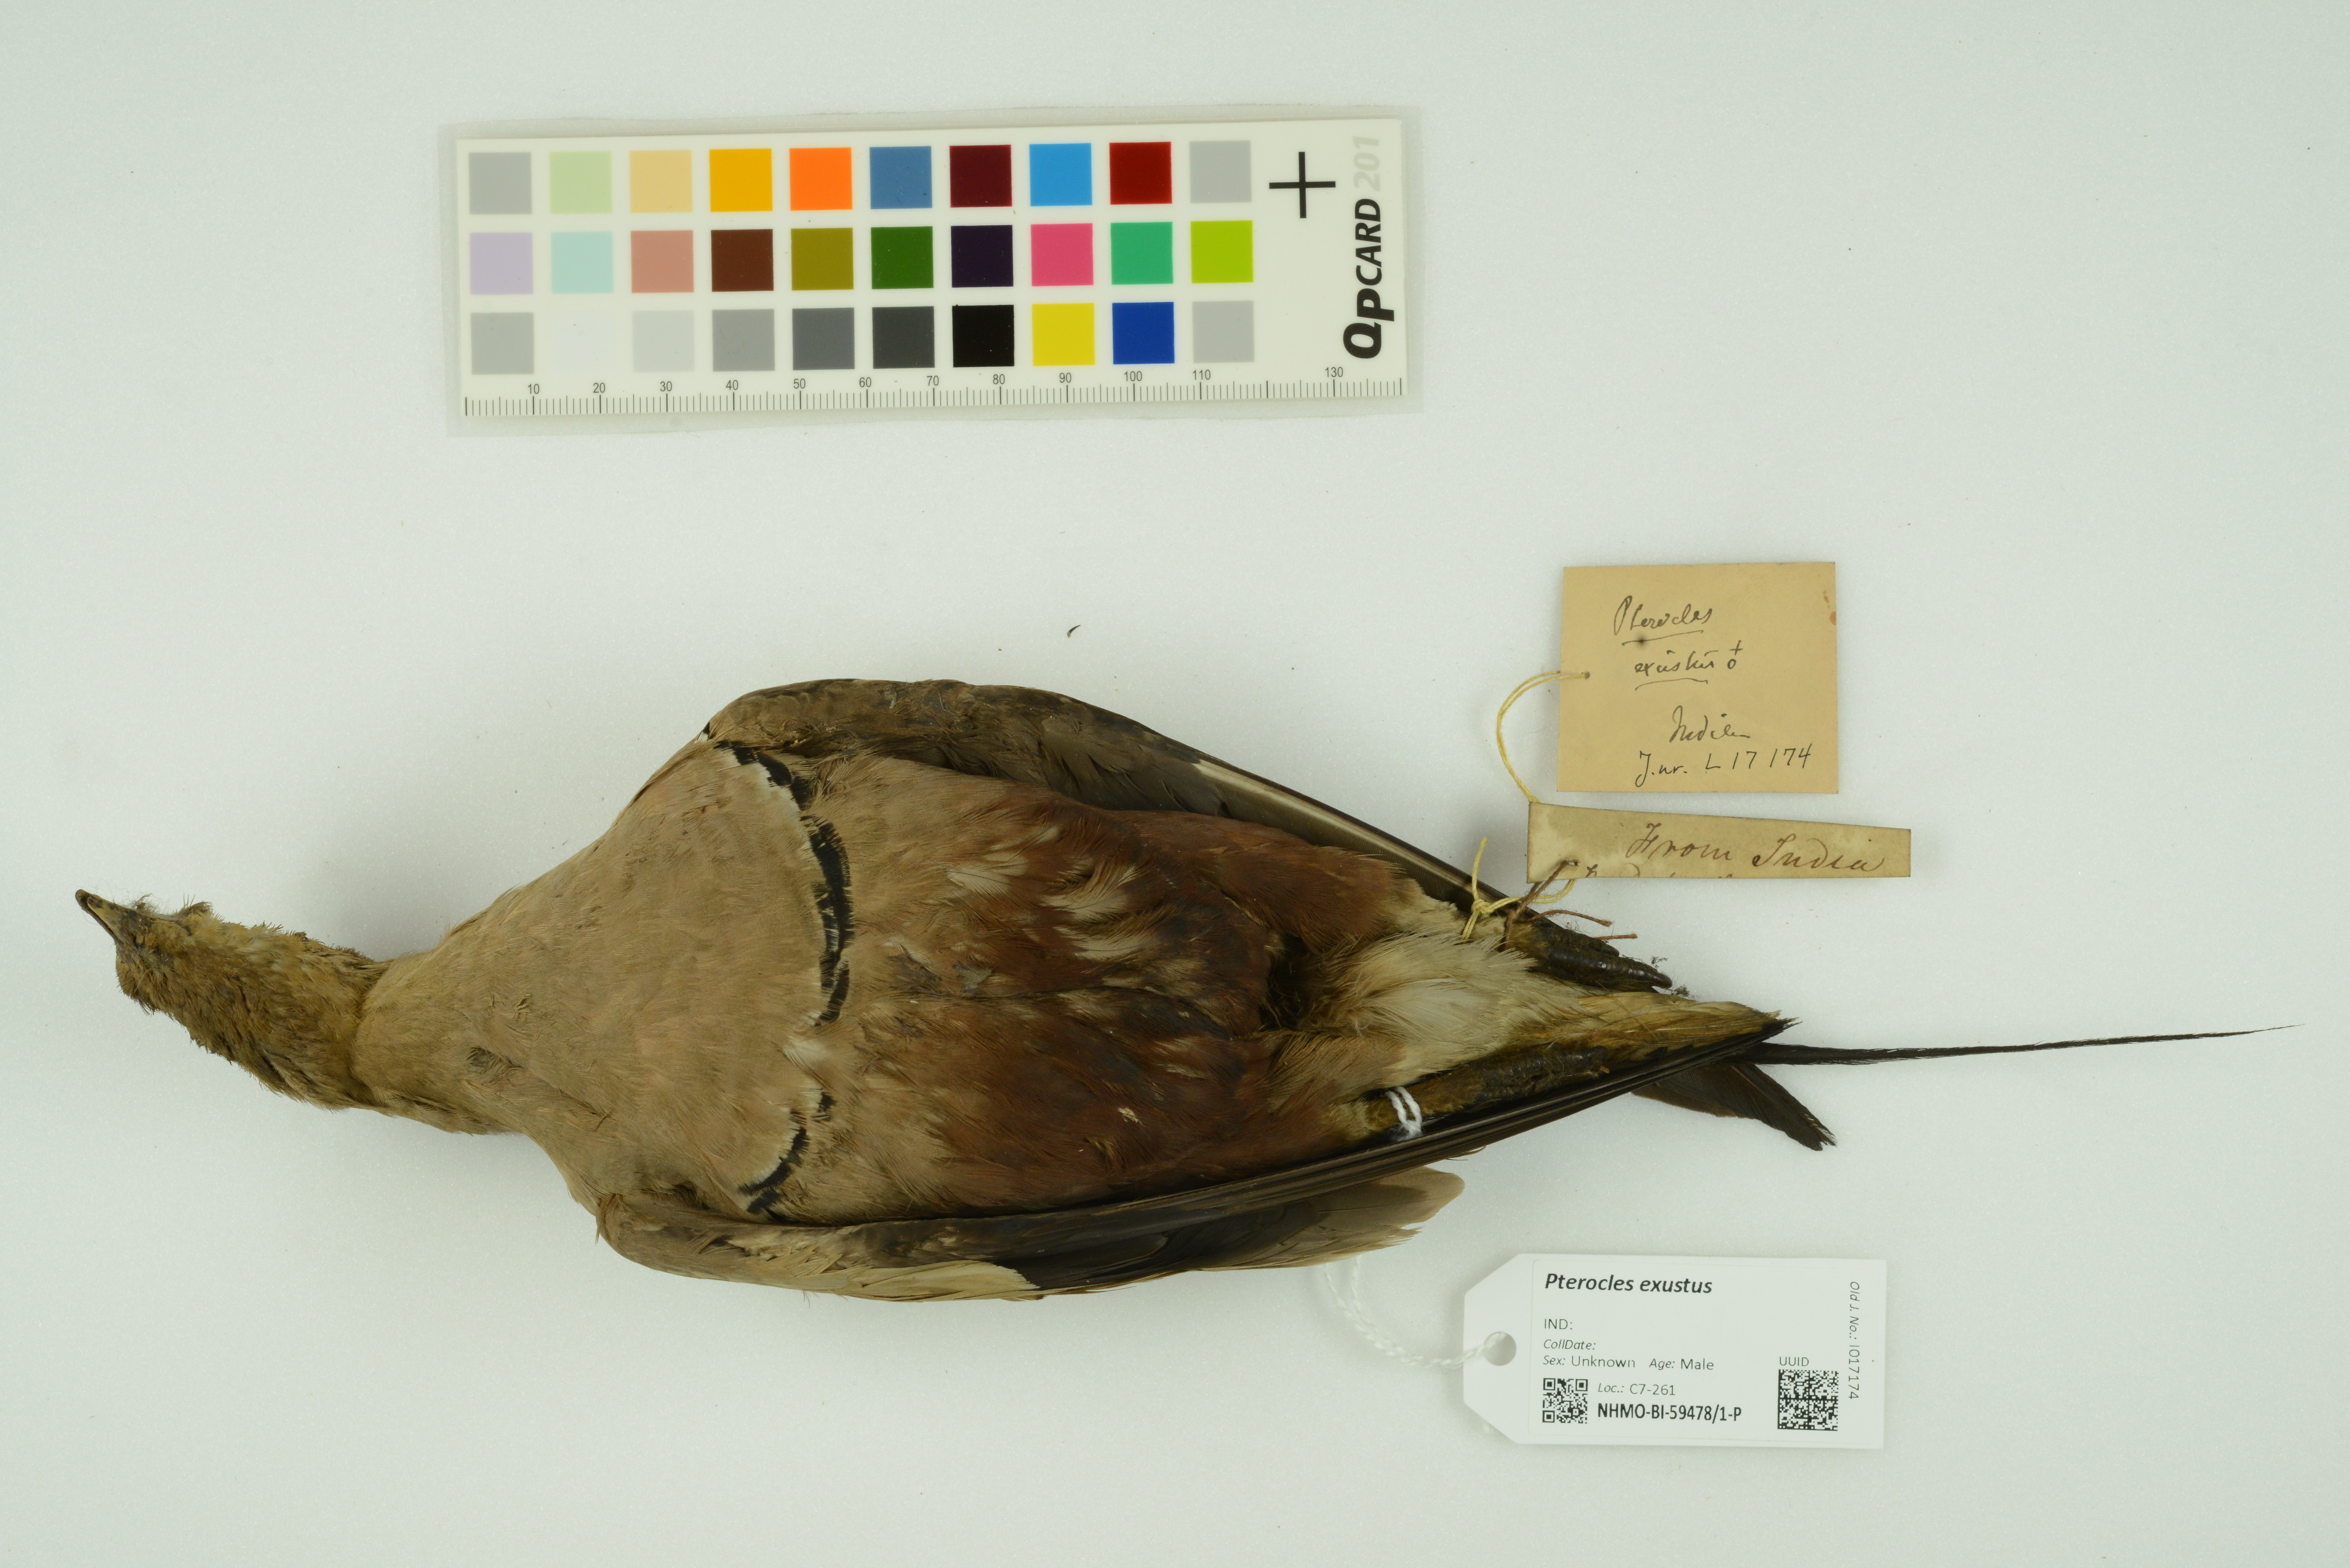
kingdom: Animalia
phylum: Chordata
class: Aves
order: Pteroclidiformes
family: Pteroclididae
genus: Pterocles
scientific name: Pterocles exustus
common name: Chestnut-bellied sandgrouse
